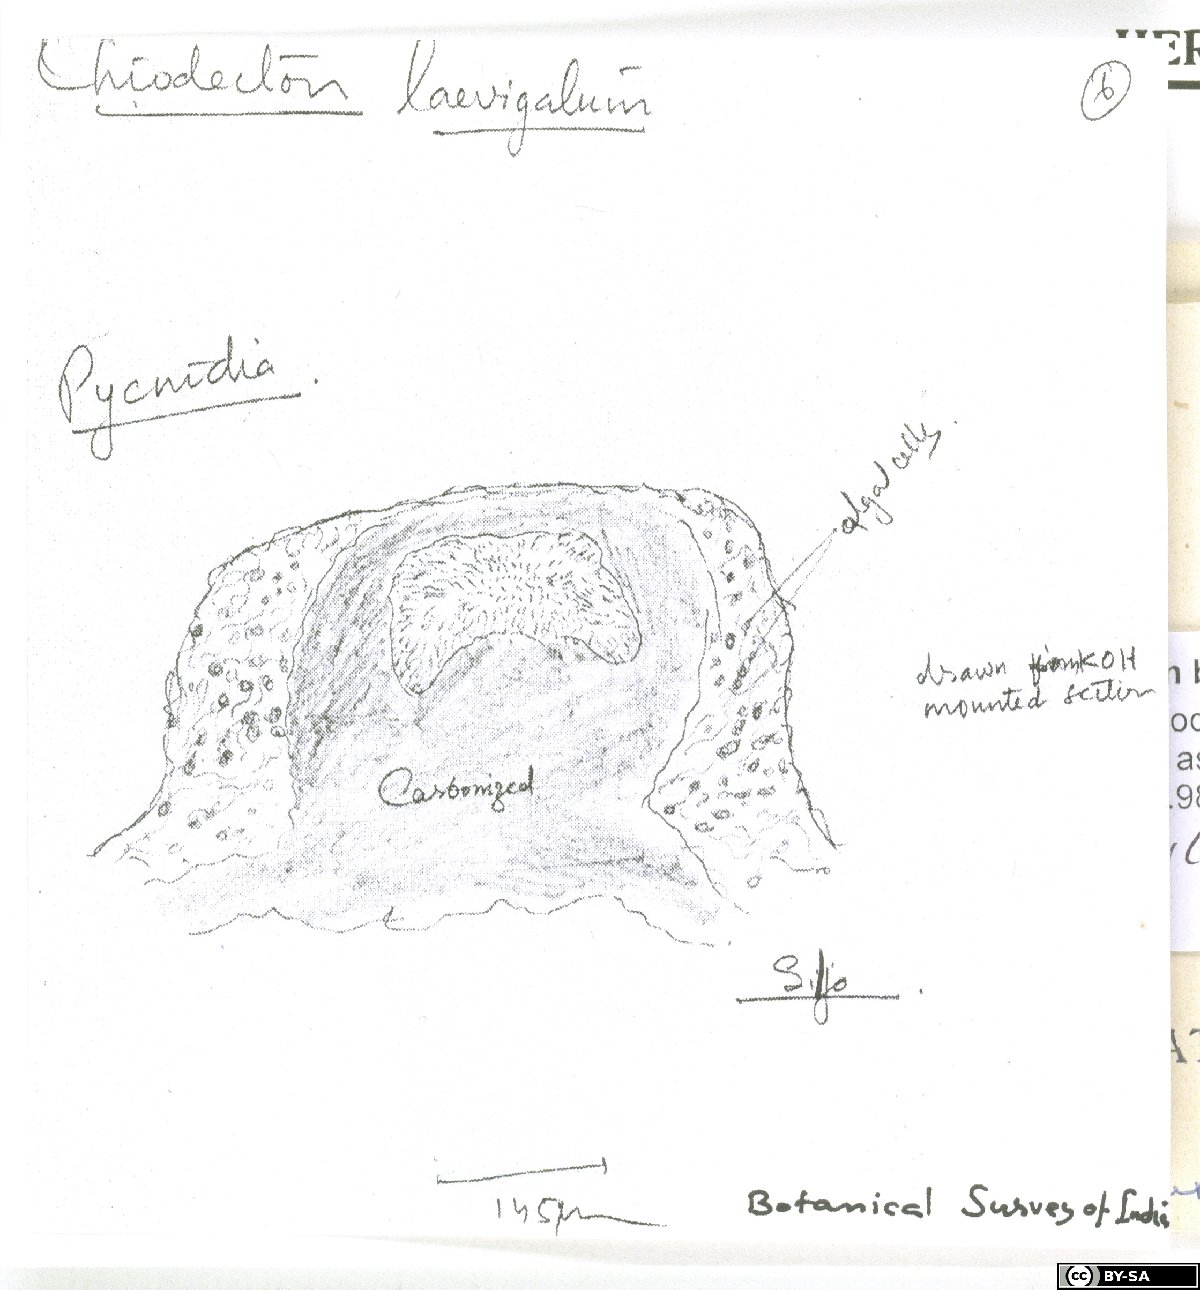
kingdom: Fungi
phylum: Ascomycota
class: Arthoniomycetes
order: Arthoniales
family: Roccellaceae
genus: Dichosporidium
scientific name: Dichosporidium boschianum
